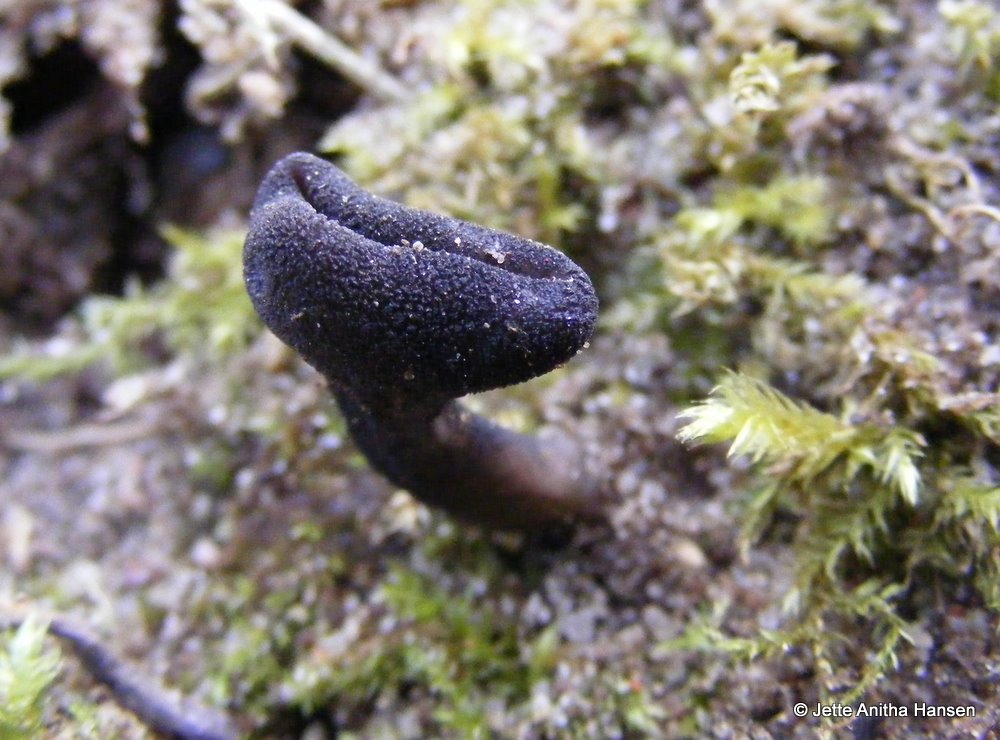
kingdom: Fungi
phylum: Ascomycota
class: Pezizomycetes
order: Pezizales
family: Helvellaceae
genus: Helvella
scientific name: Helvella corium
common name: pile-foldhat
